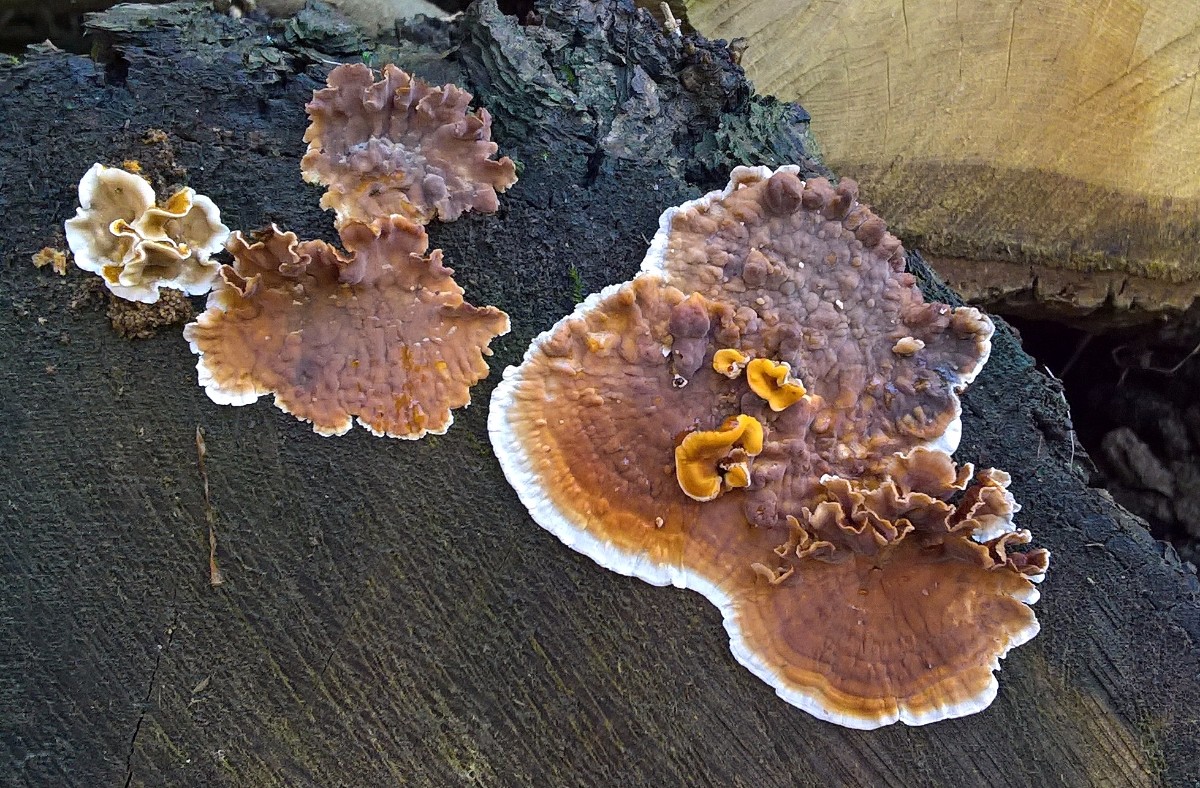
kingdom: Fungi
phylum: Basidiomycota
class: Agaricomycetes
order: Russulales
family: Stereaceae
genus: Stereum
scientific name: Stereum hirsutum
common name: håret lædersvamp
